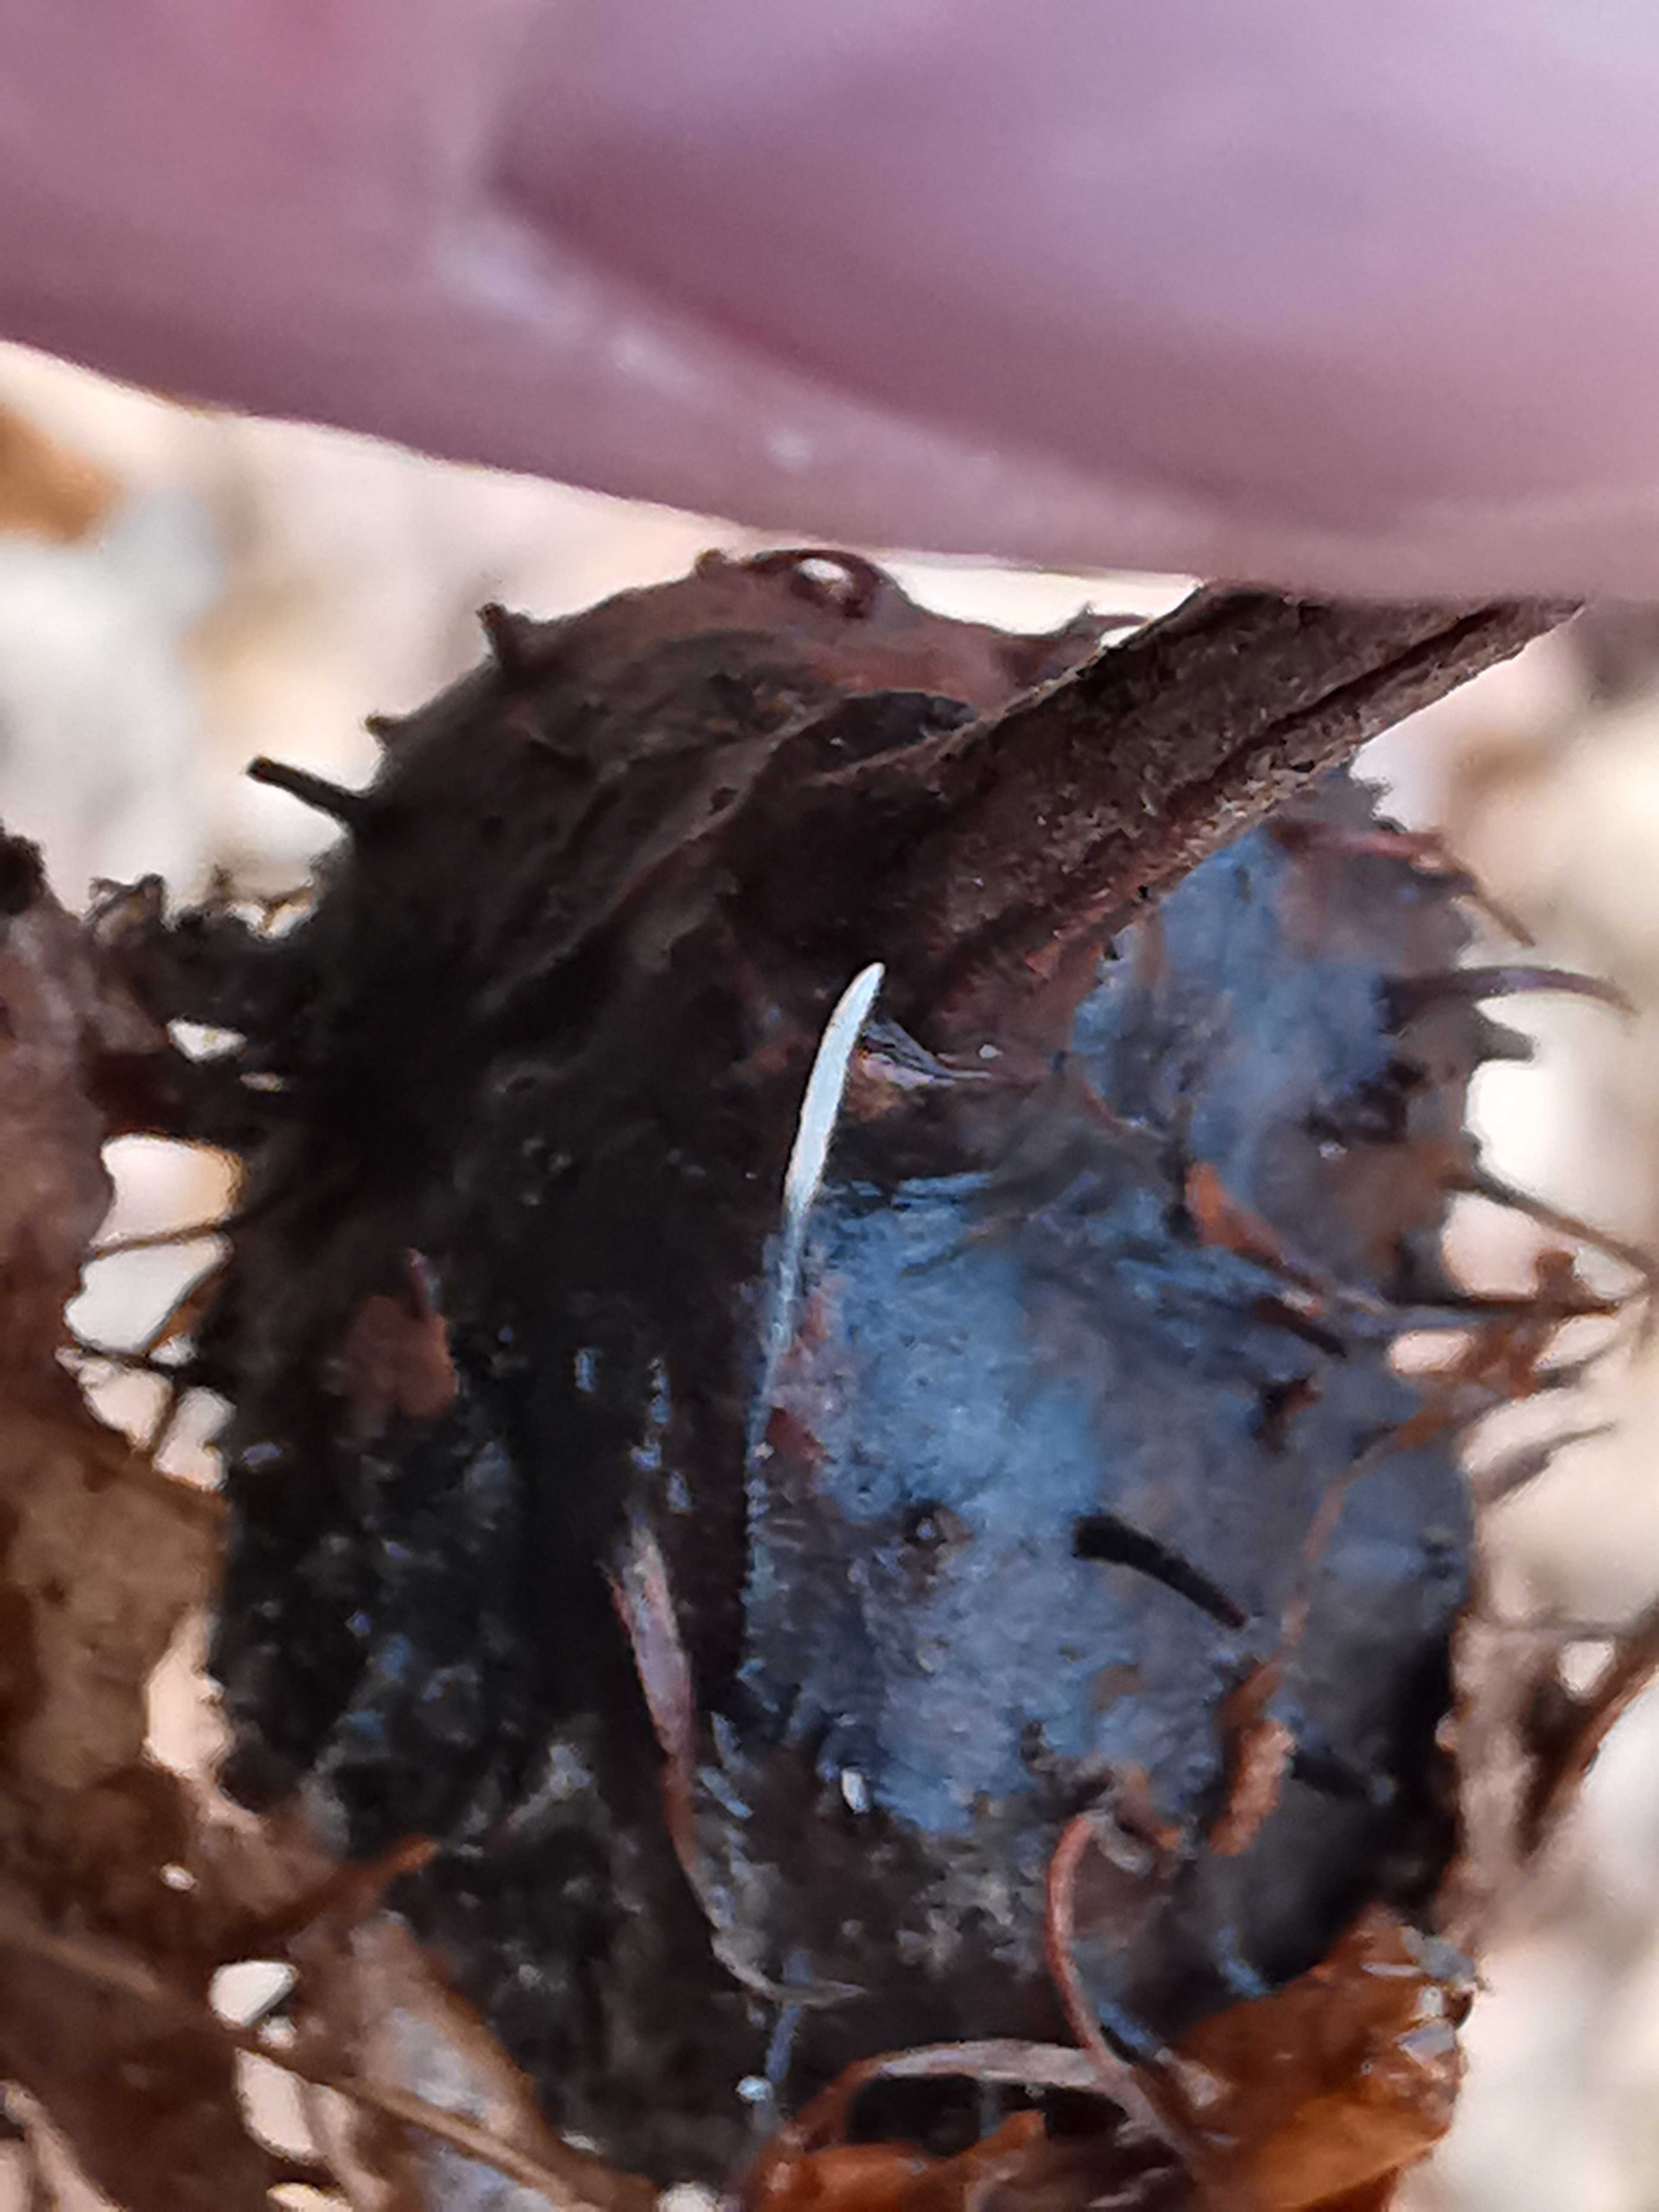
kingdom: Fungi
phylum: Ascomycota
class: Sordariomycetes
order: Xylariales
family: Xylariaceae
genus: Xylaria
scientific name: Xylaria carpophila
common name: bogskål-stødsvamp
